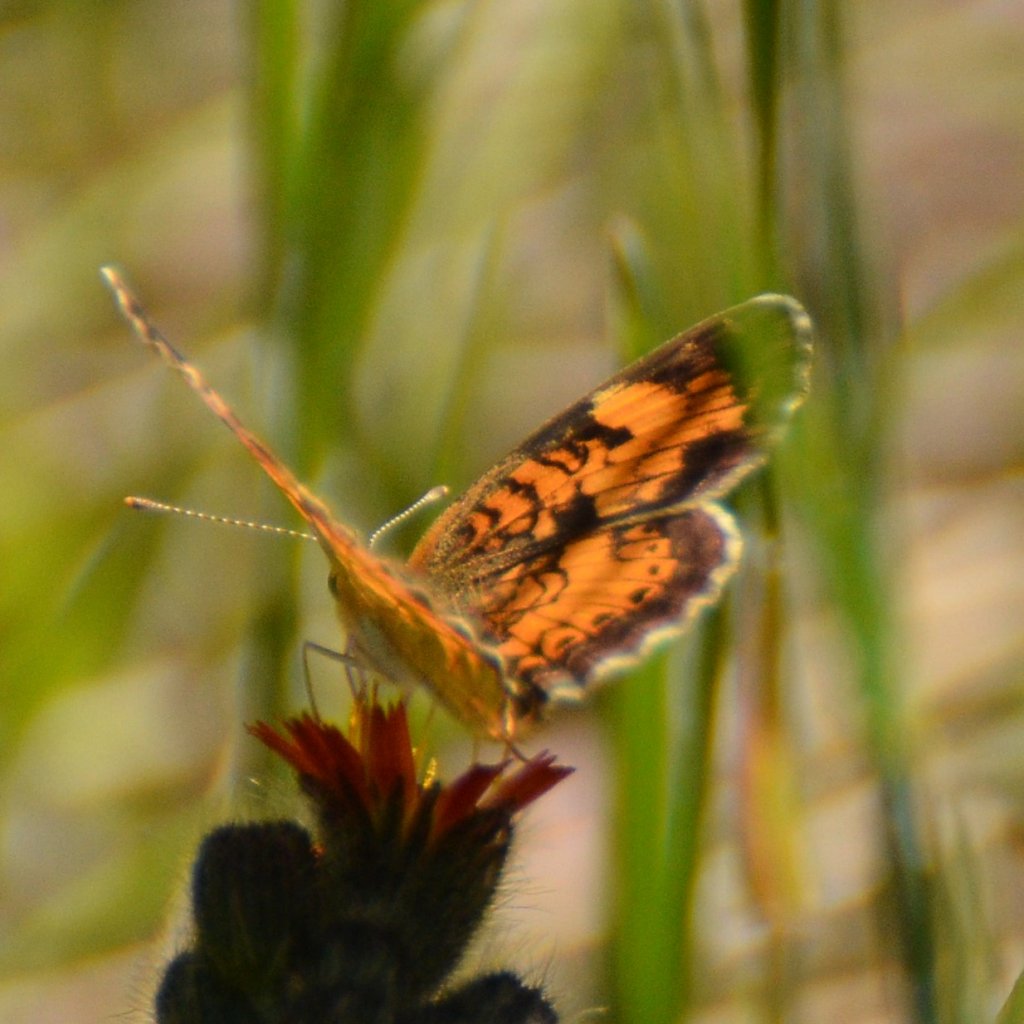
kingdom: Animalia
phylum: Arthropoda
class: Insecta
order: Lepidoptera
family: Nymphalidae
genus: Phyciodes
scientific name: Phyciodes tharos
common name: Northern Crescent
